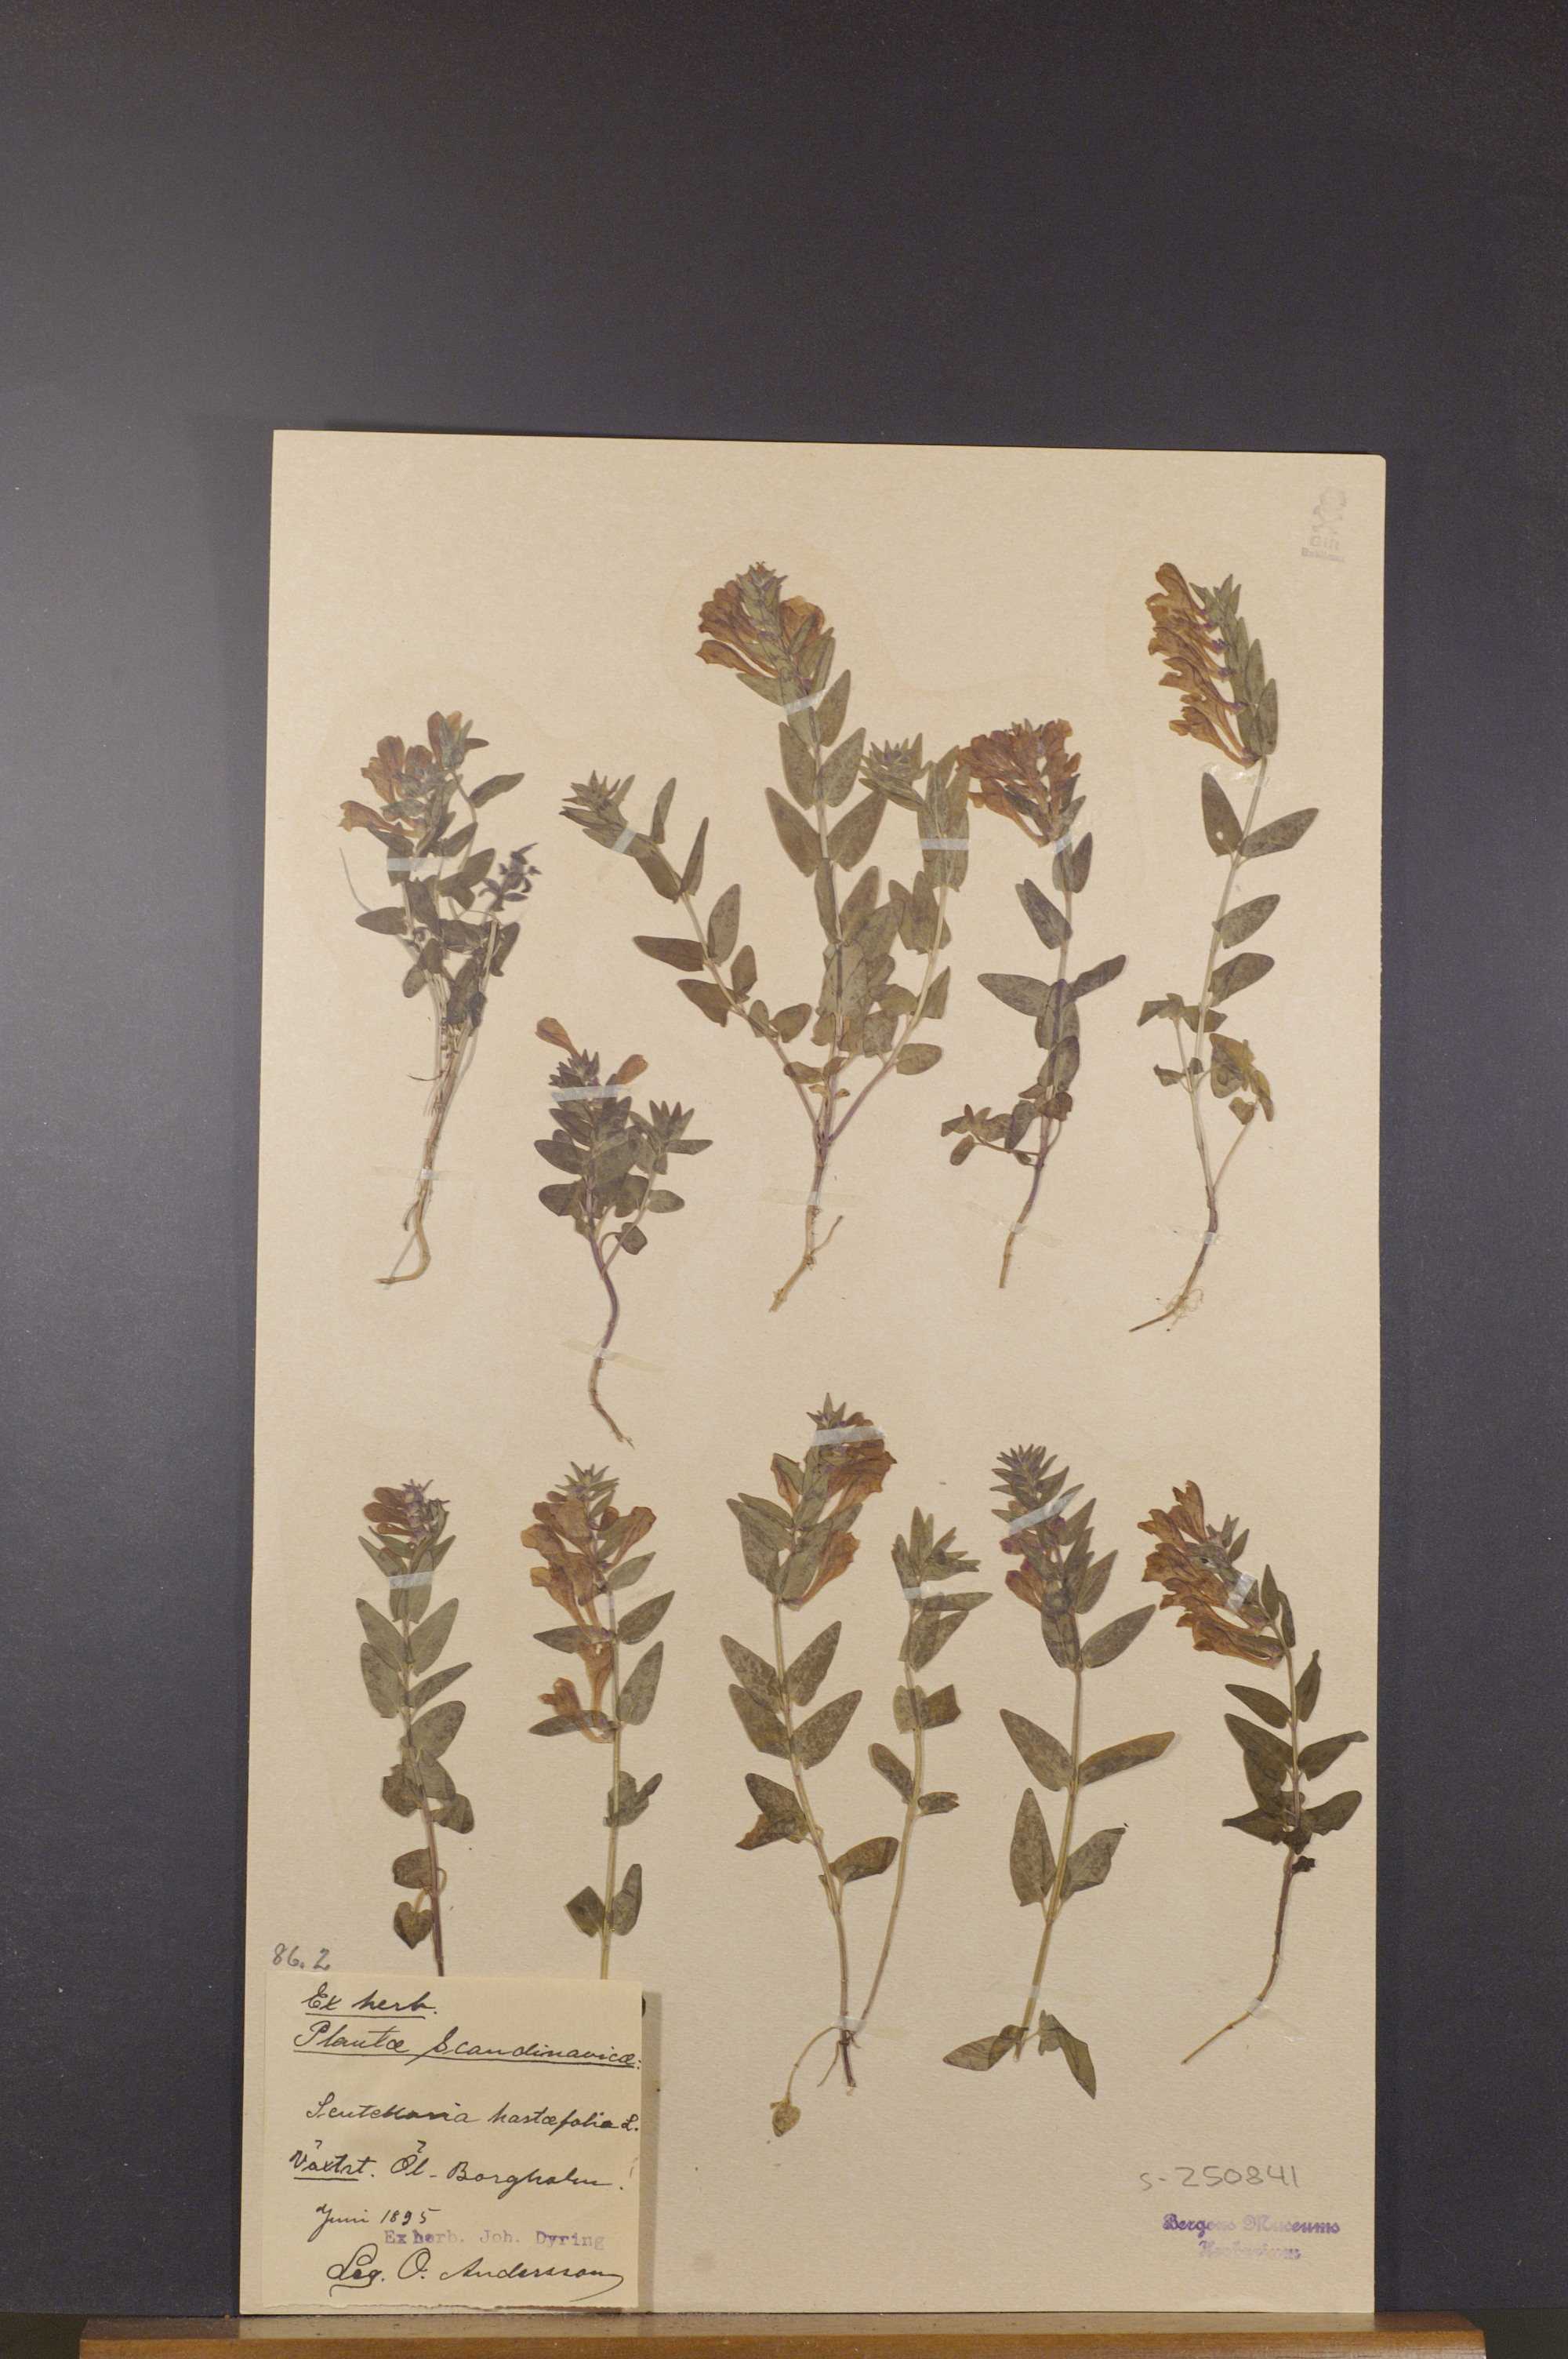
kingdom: Plantae
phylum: Tracheophyta
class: Magnoliopsida
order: Lamiales
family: Lamiaceae
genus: Scutellaria
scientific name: Scutellaria hastifolia
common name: Norfolk skullcap
